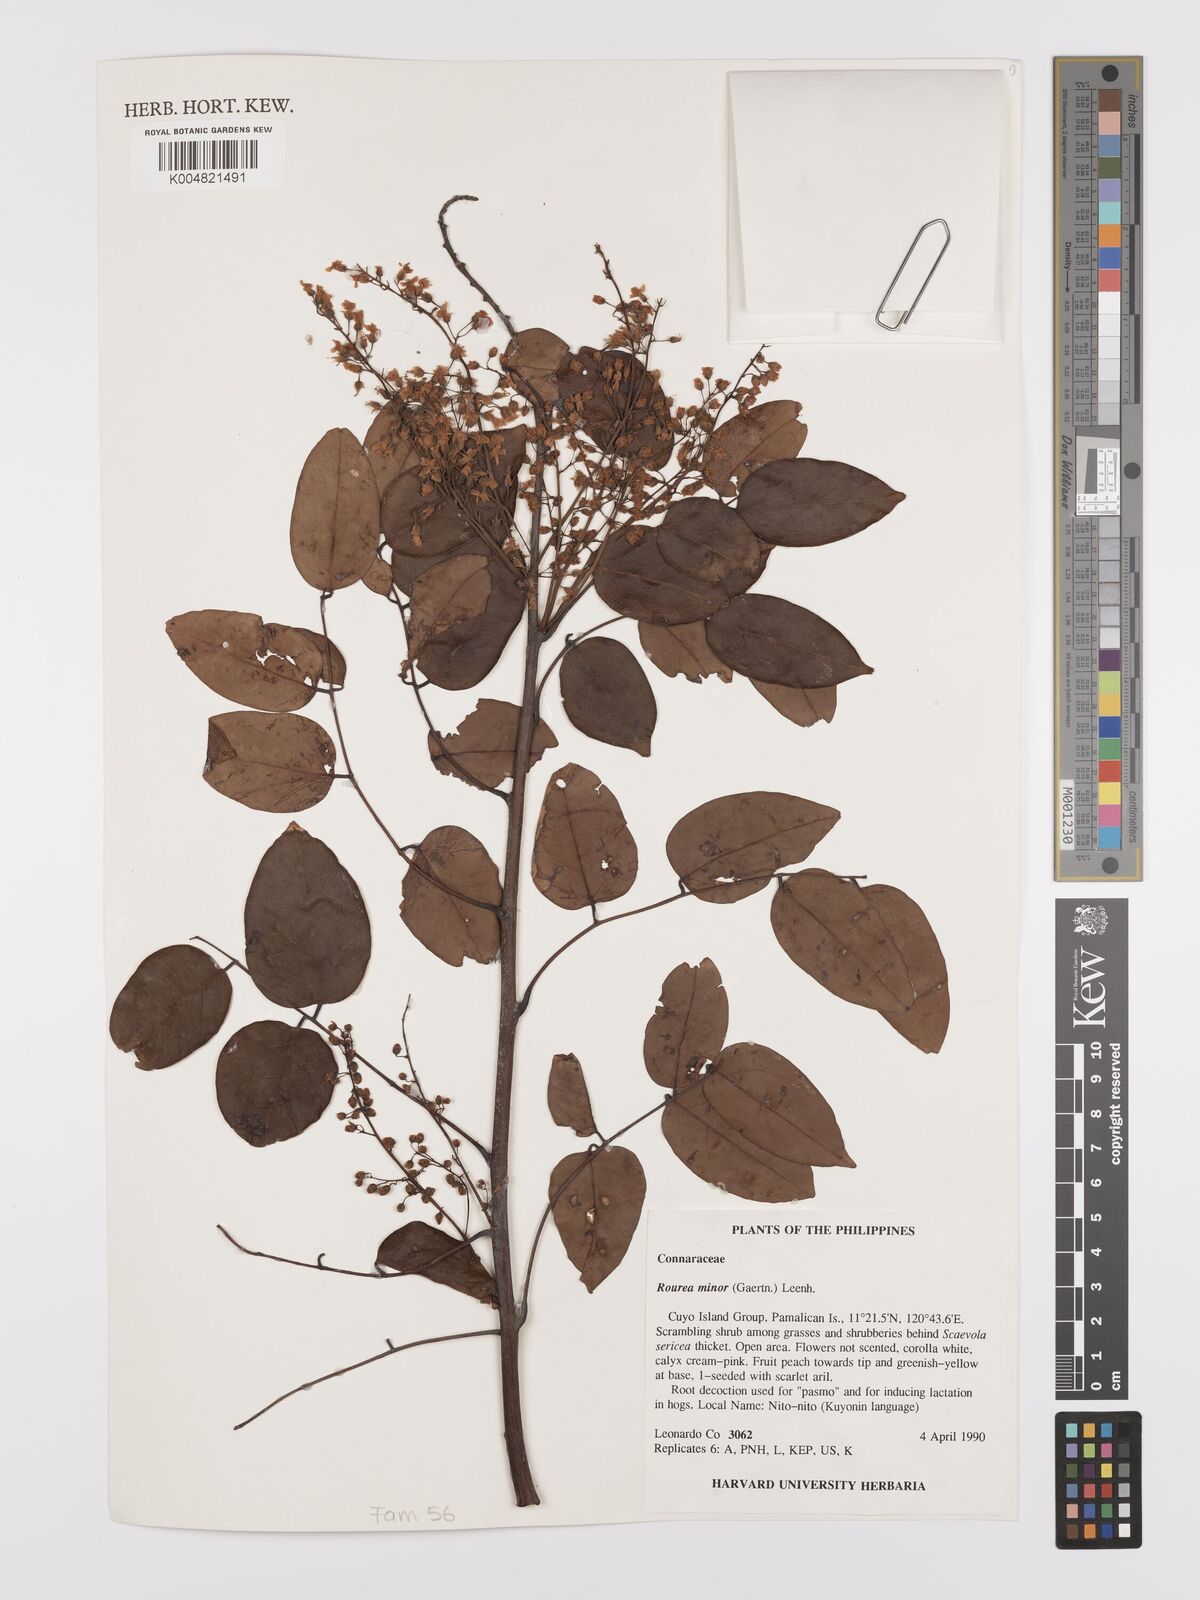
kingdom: Plantae
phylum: Tracheophyta
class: Magnoliopsida
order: Oxalidales
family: Connaraceae
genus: Rourea
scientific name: Rourea minor
